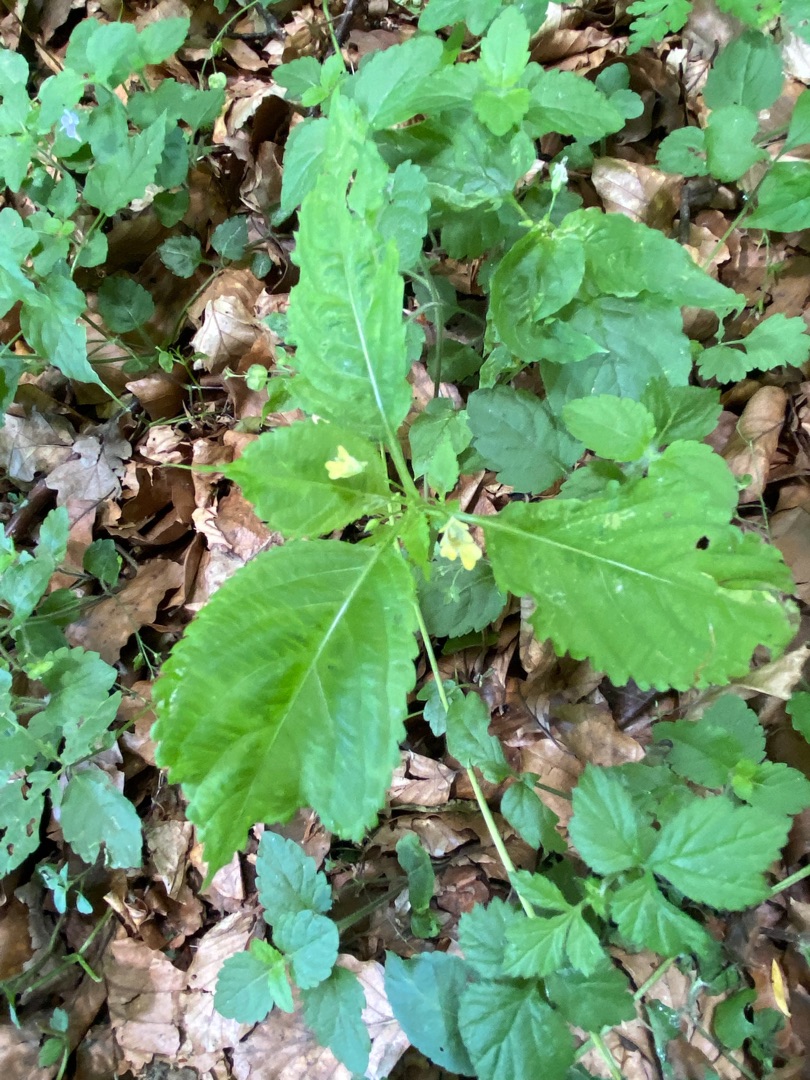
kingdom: Plantae
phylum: Tracheophyta
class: Magnoliopsida
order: Ericales
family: Balsaminaceae
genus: Impatiens
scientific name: Impatiens parviflora
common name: Småblomstret balsamin
